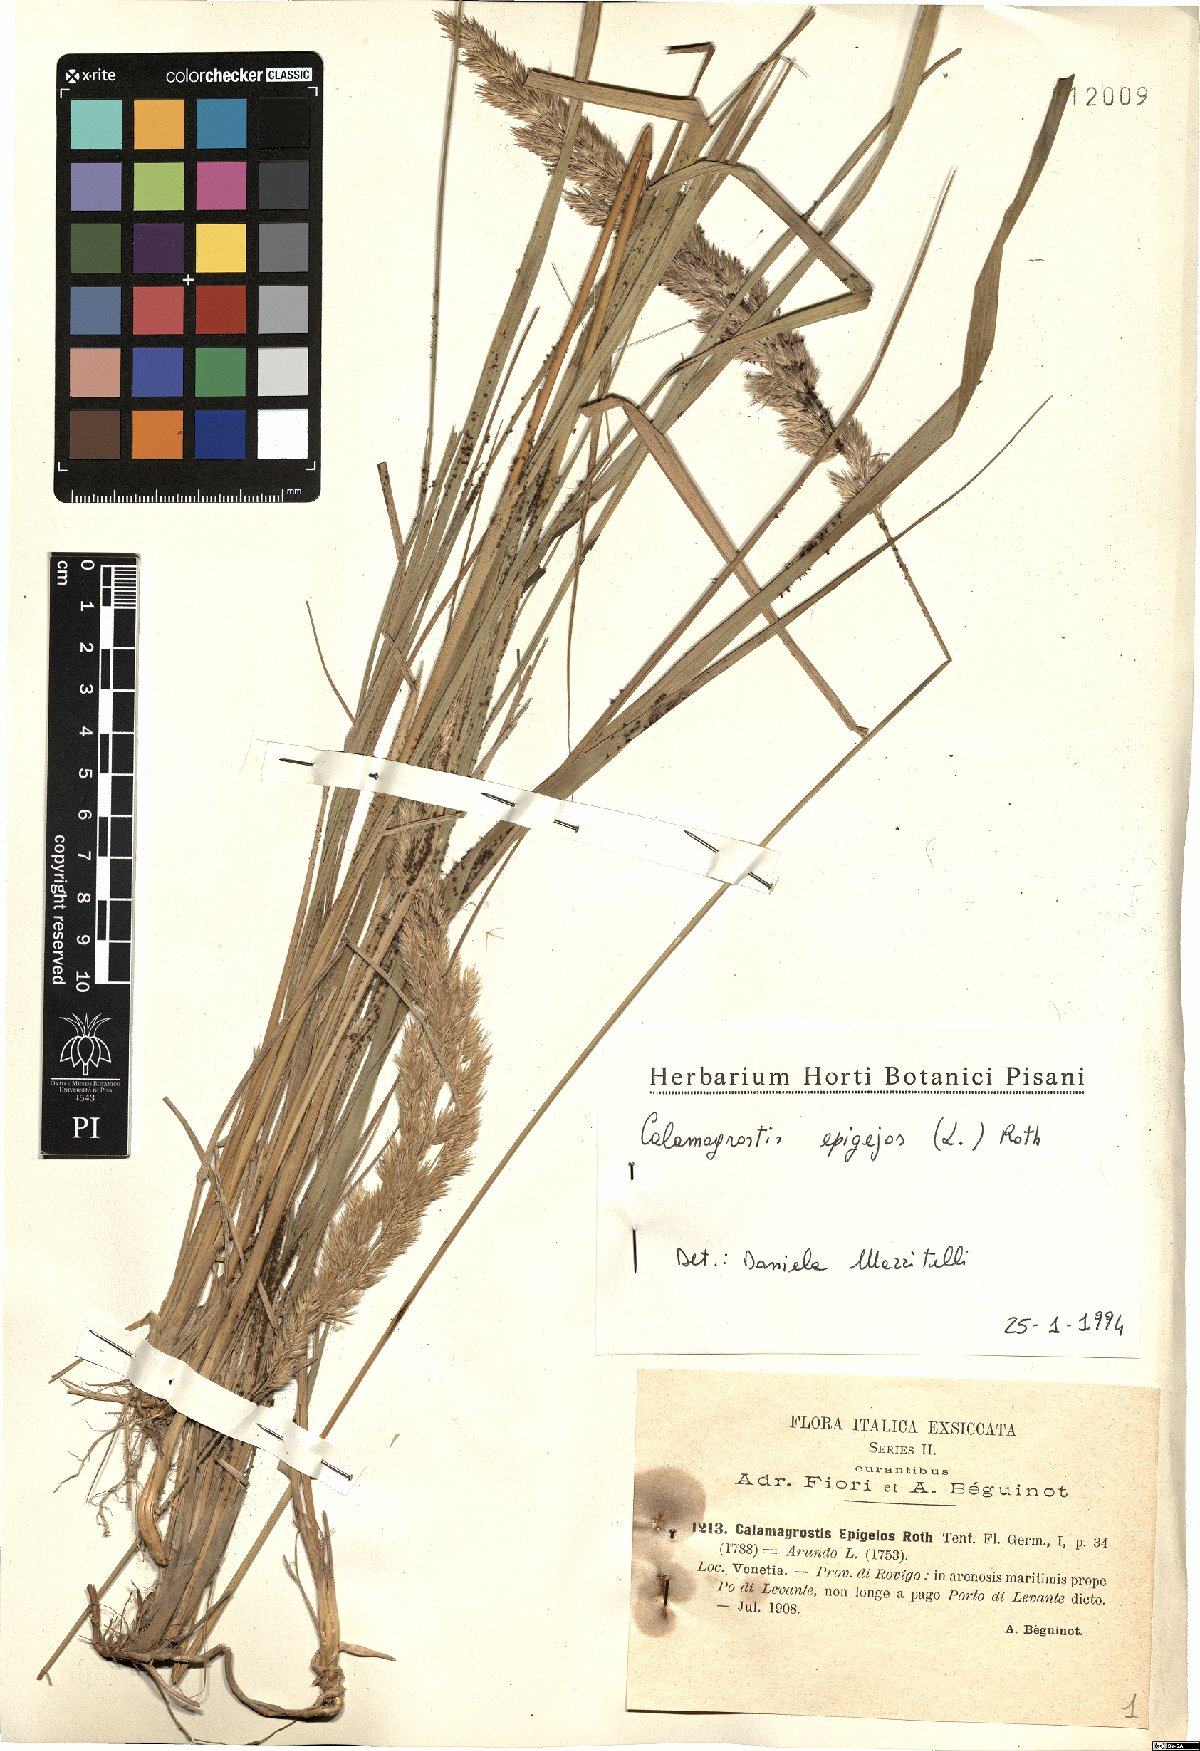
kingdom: Plantae
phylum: Tracheophyta
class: Liliopsida
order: Poales
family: Poaceae
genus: Calamagrostis
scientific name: Calamagrostis epigejos
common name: Wood small-reed
